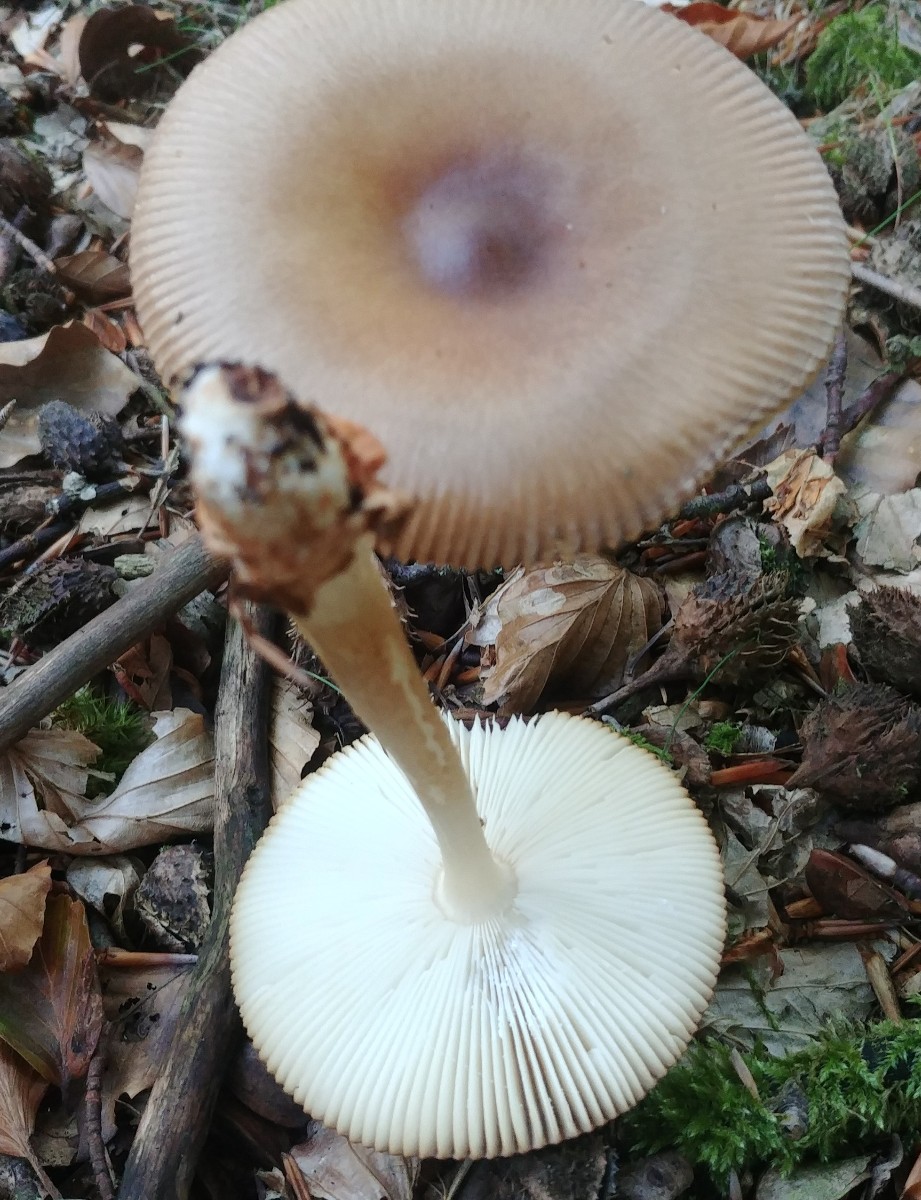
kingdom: Fungi
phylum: Basidiomycota
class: Agaricomycetes
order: Agaricales
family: Amanitaceae
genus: Amanita
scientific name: Amanita fulva
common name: brun kam-fluesvamp
